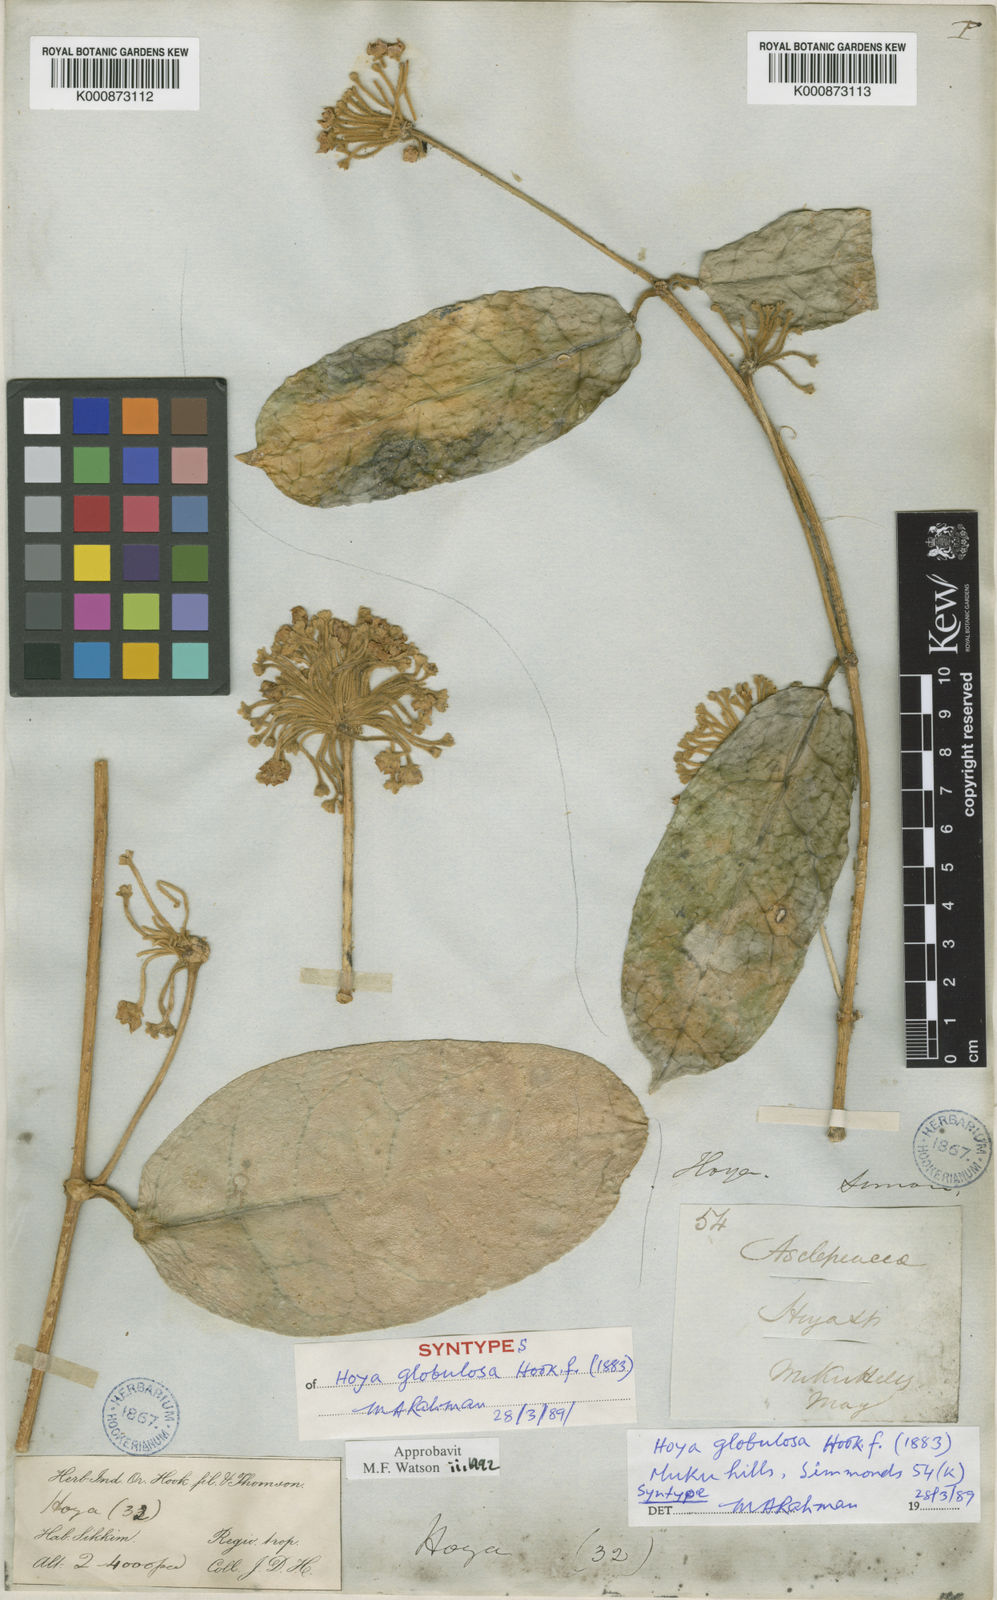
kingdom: Plantae
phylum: Tracheophyta
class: Magnoliopsida
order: Gentianales
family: Apocynaceae
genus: Hoya
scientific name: Hoya globulosa
